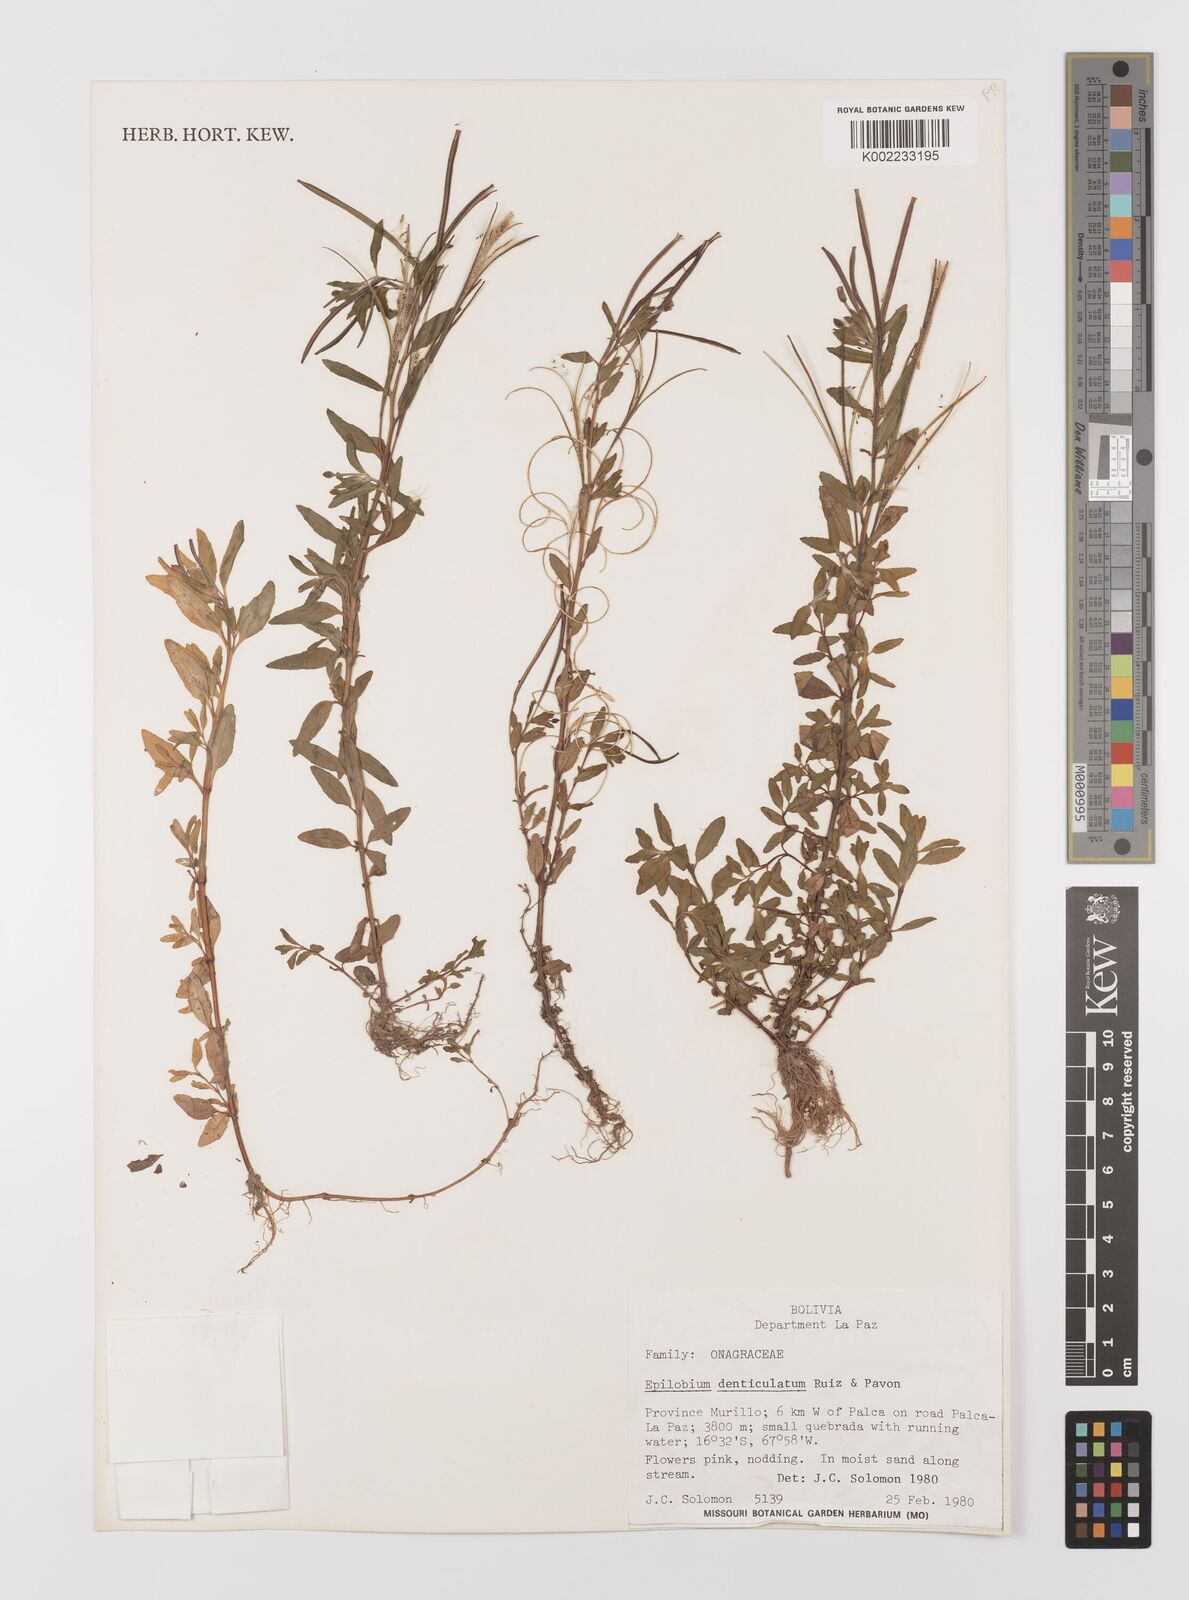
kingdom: Plantae
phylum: Tracheophyta
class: Magnoliopsida
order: Myrtales
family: Onagraceae
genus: Epilobium
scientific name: Epilobium denticulatum
